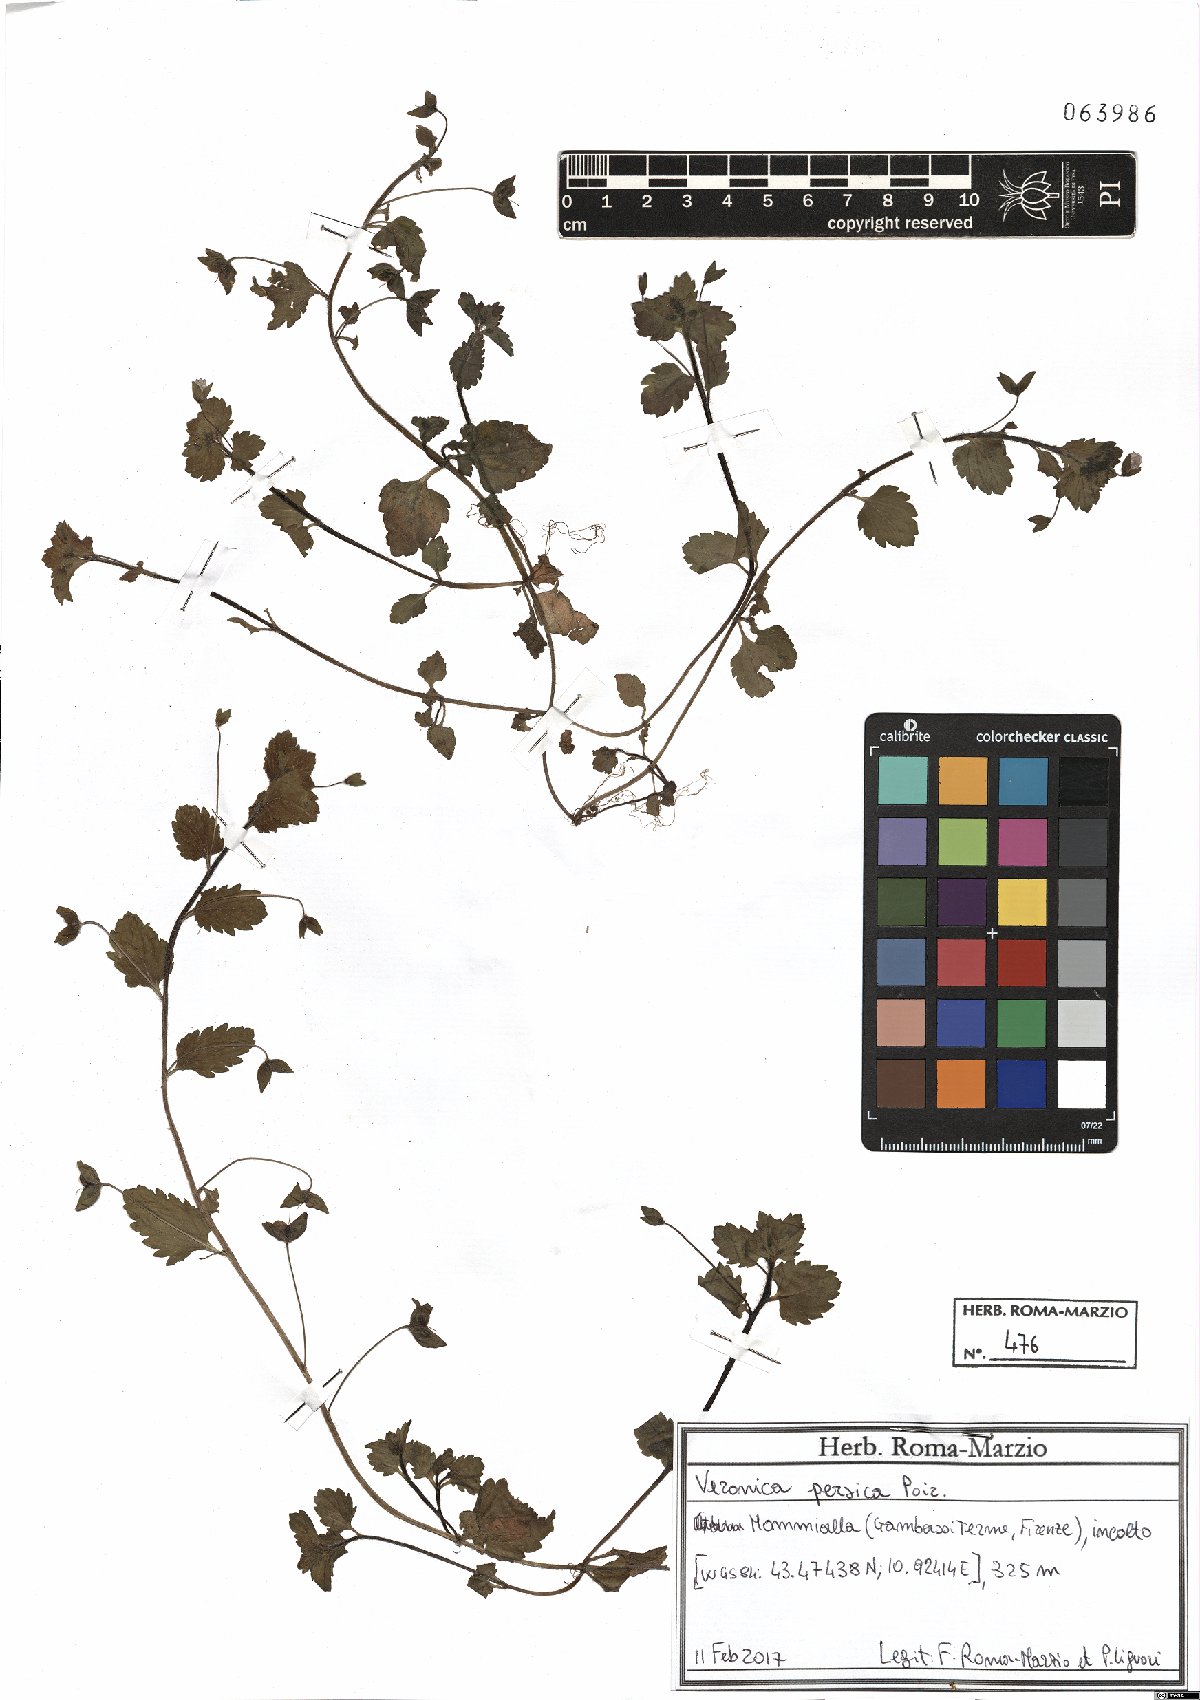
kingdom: Plantae
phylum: Tracheophyta
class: Magnoliopsida
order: Lamiales
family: Plantaginaceae
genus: Veronica
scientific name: Veronica persica
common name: Common field-speedwell
